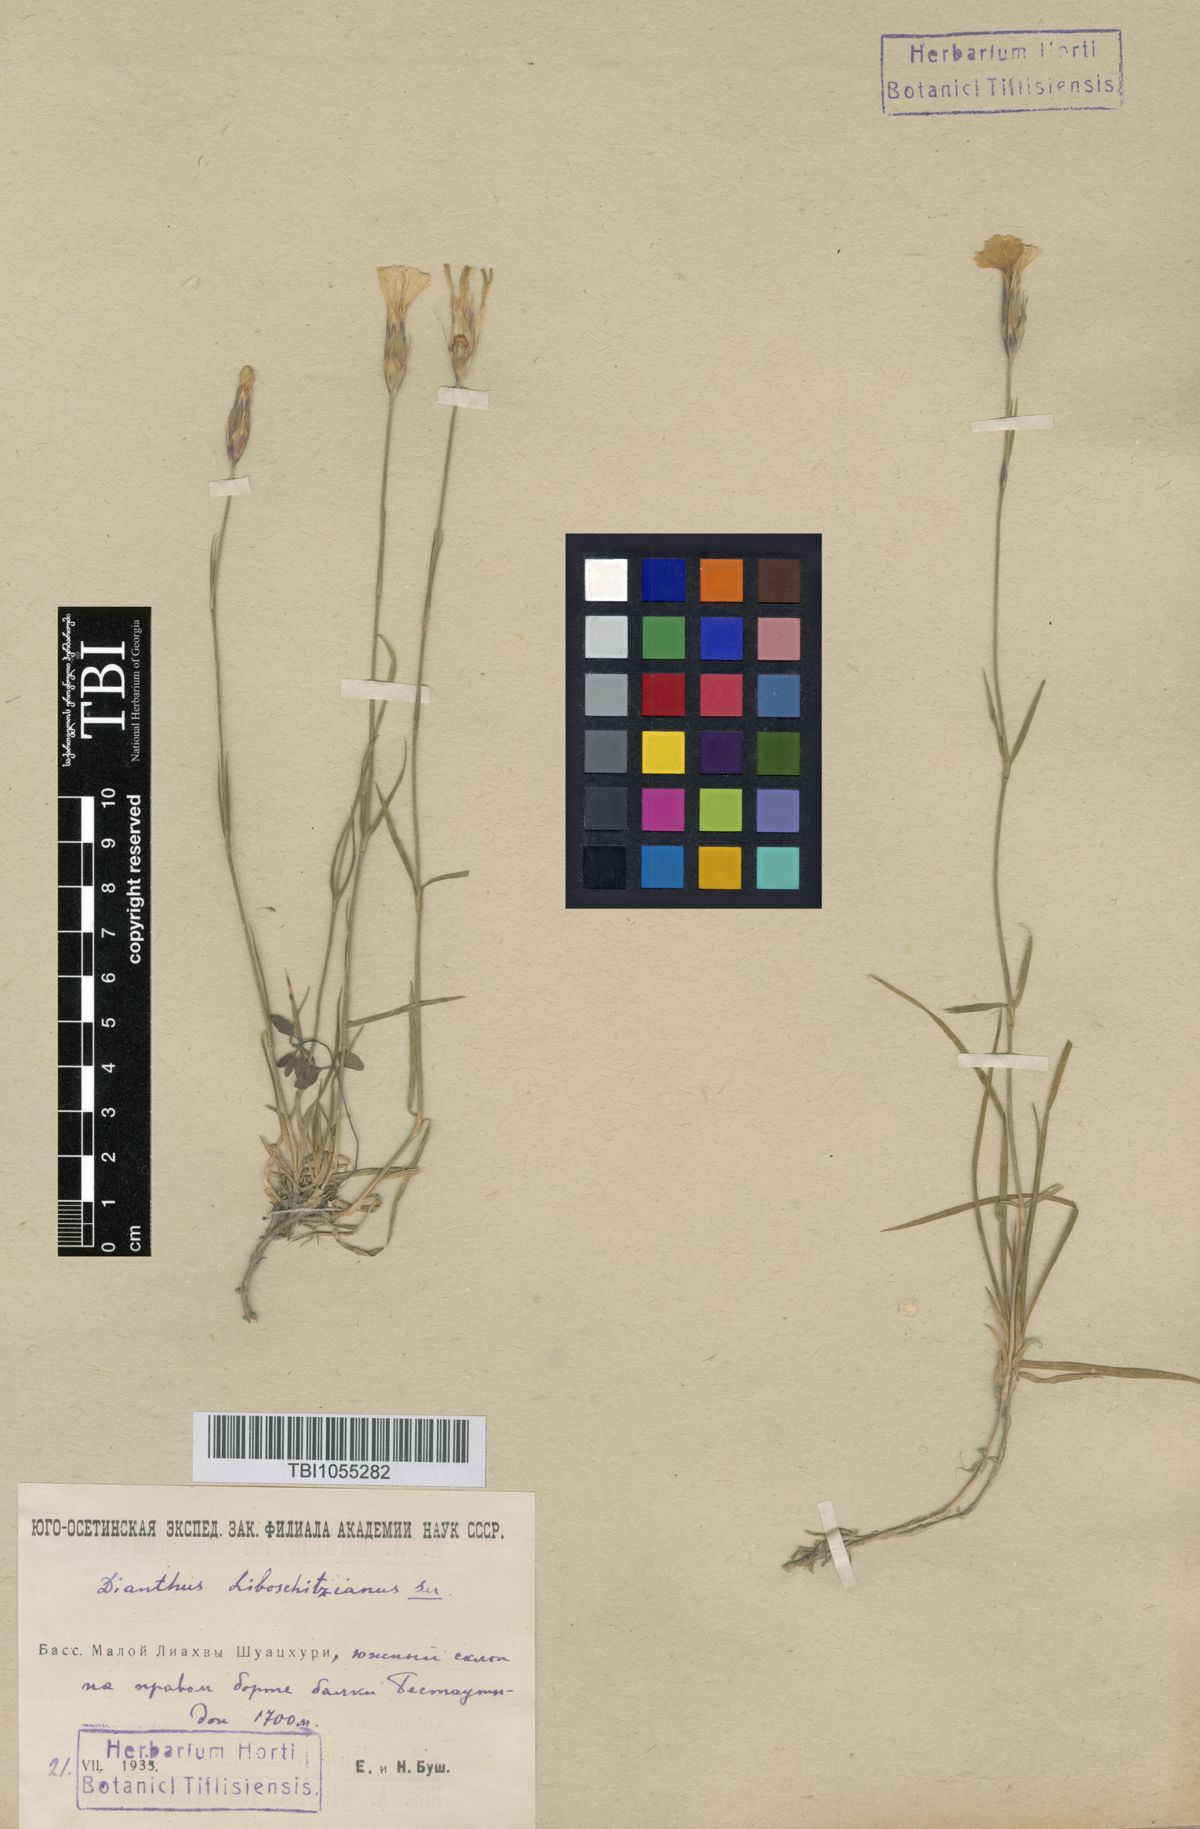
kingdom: Plantae
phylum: Tracheophyta
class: Magnoliopsida
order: Caryophyllales
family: Caryophyllaceae
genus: Dianthus
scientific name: Dianthus cretaceus
